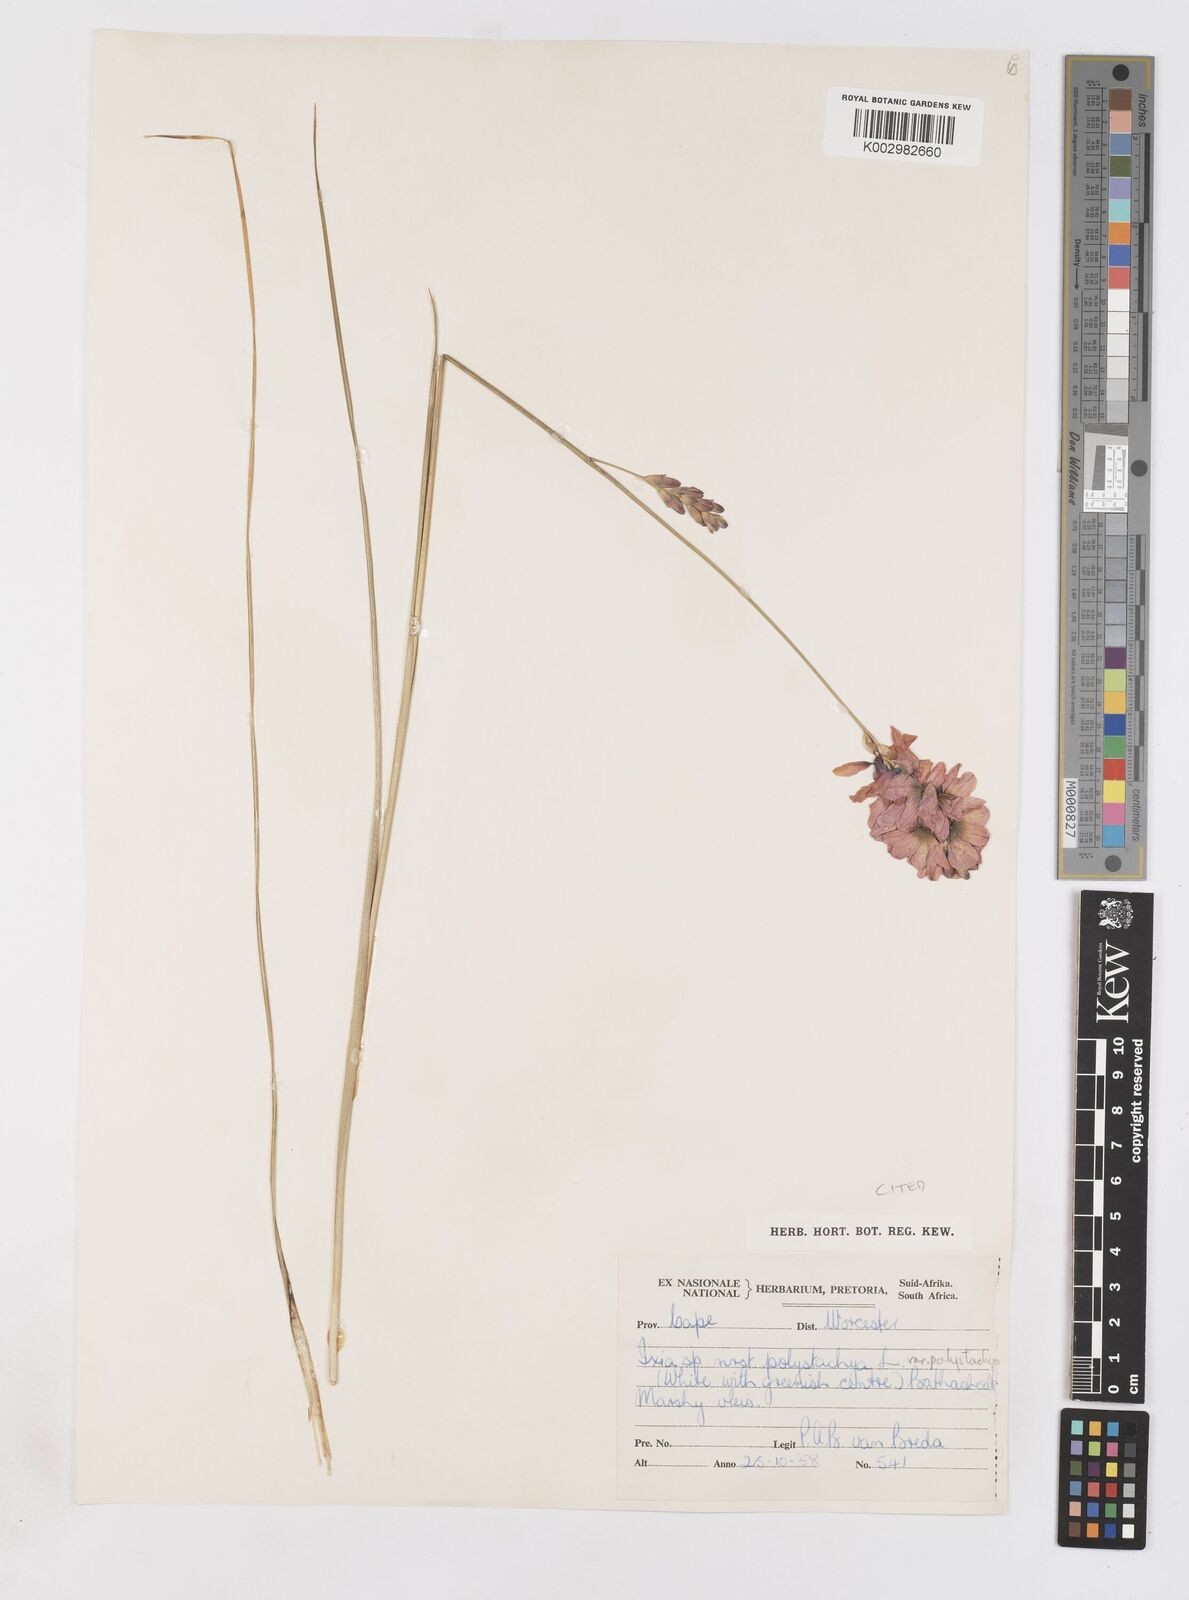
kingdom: Plantae
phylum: Tracheophyta
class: Liliopsida
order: Asparagales
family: Iridaceae
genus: Ixia
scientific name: Ixia polystachya
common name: White-and-yellow-flower cornlily
